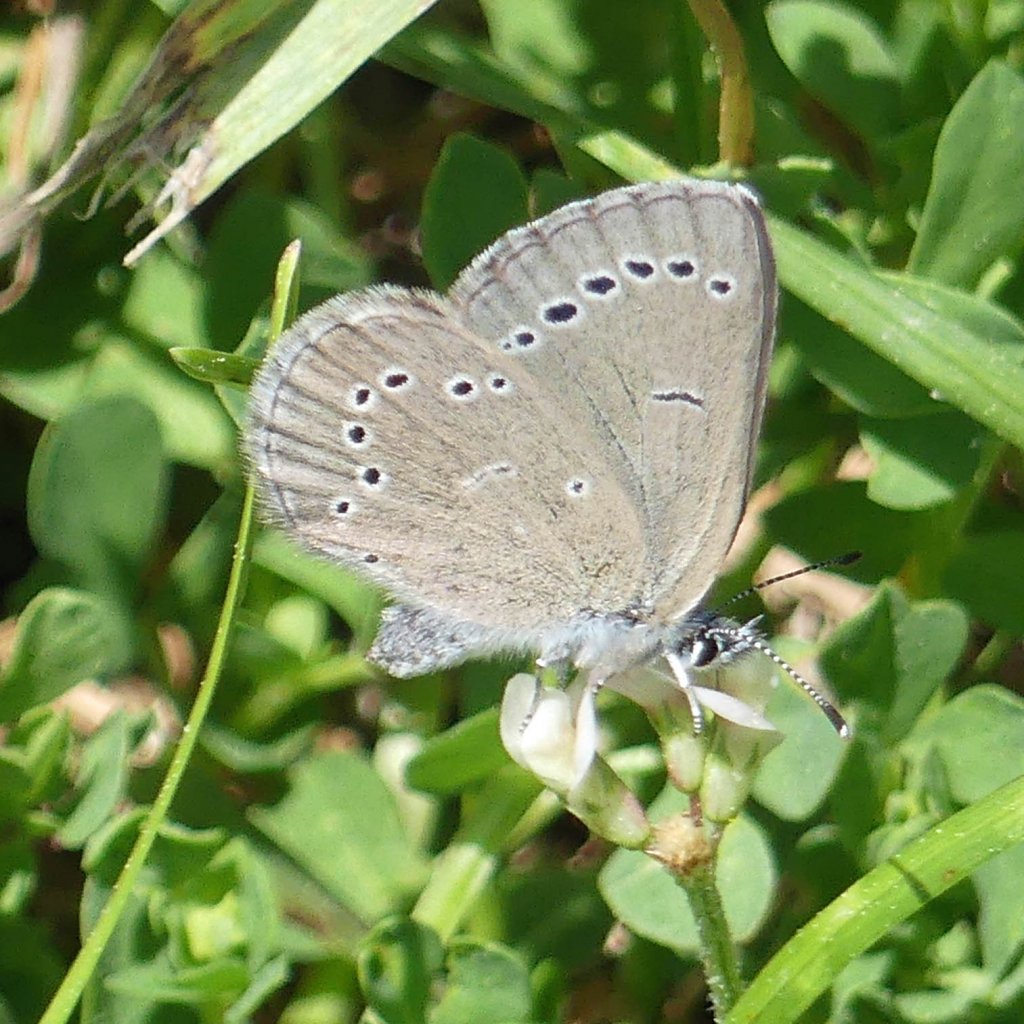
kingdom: Animalia
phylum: Arthropoda
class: Insecta
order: Lepidoptera
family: Lycaenidae
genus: Glaucopsyche
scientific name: Glaucopsyche lygdamus
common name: Silvery Blue
